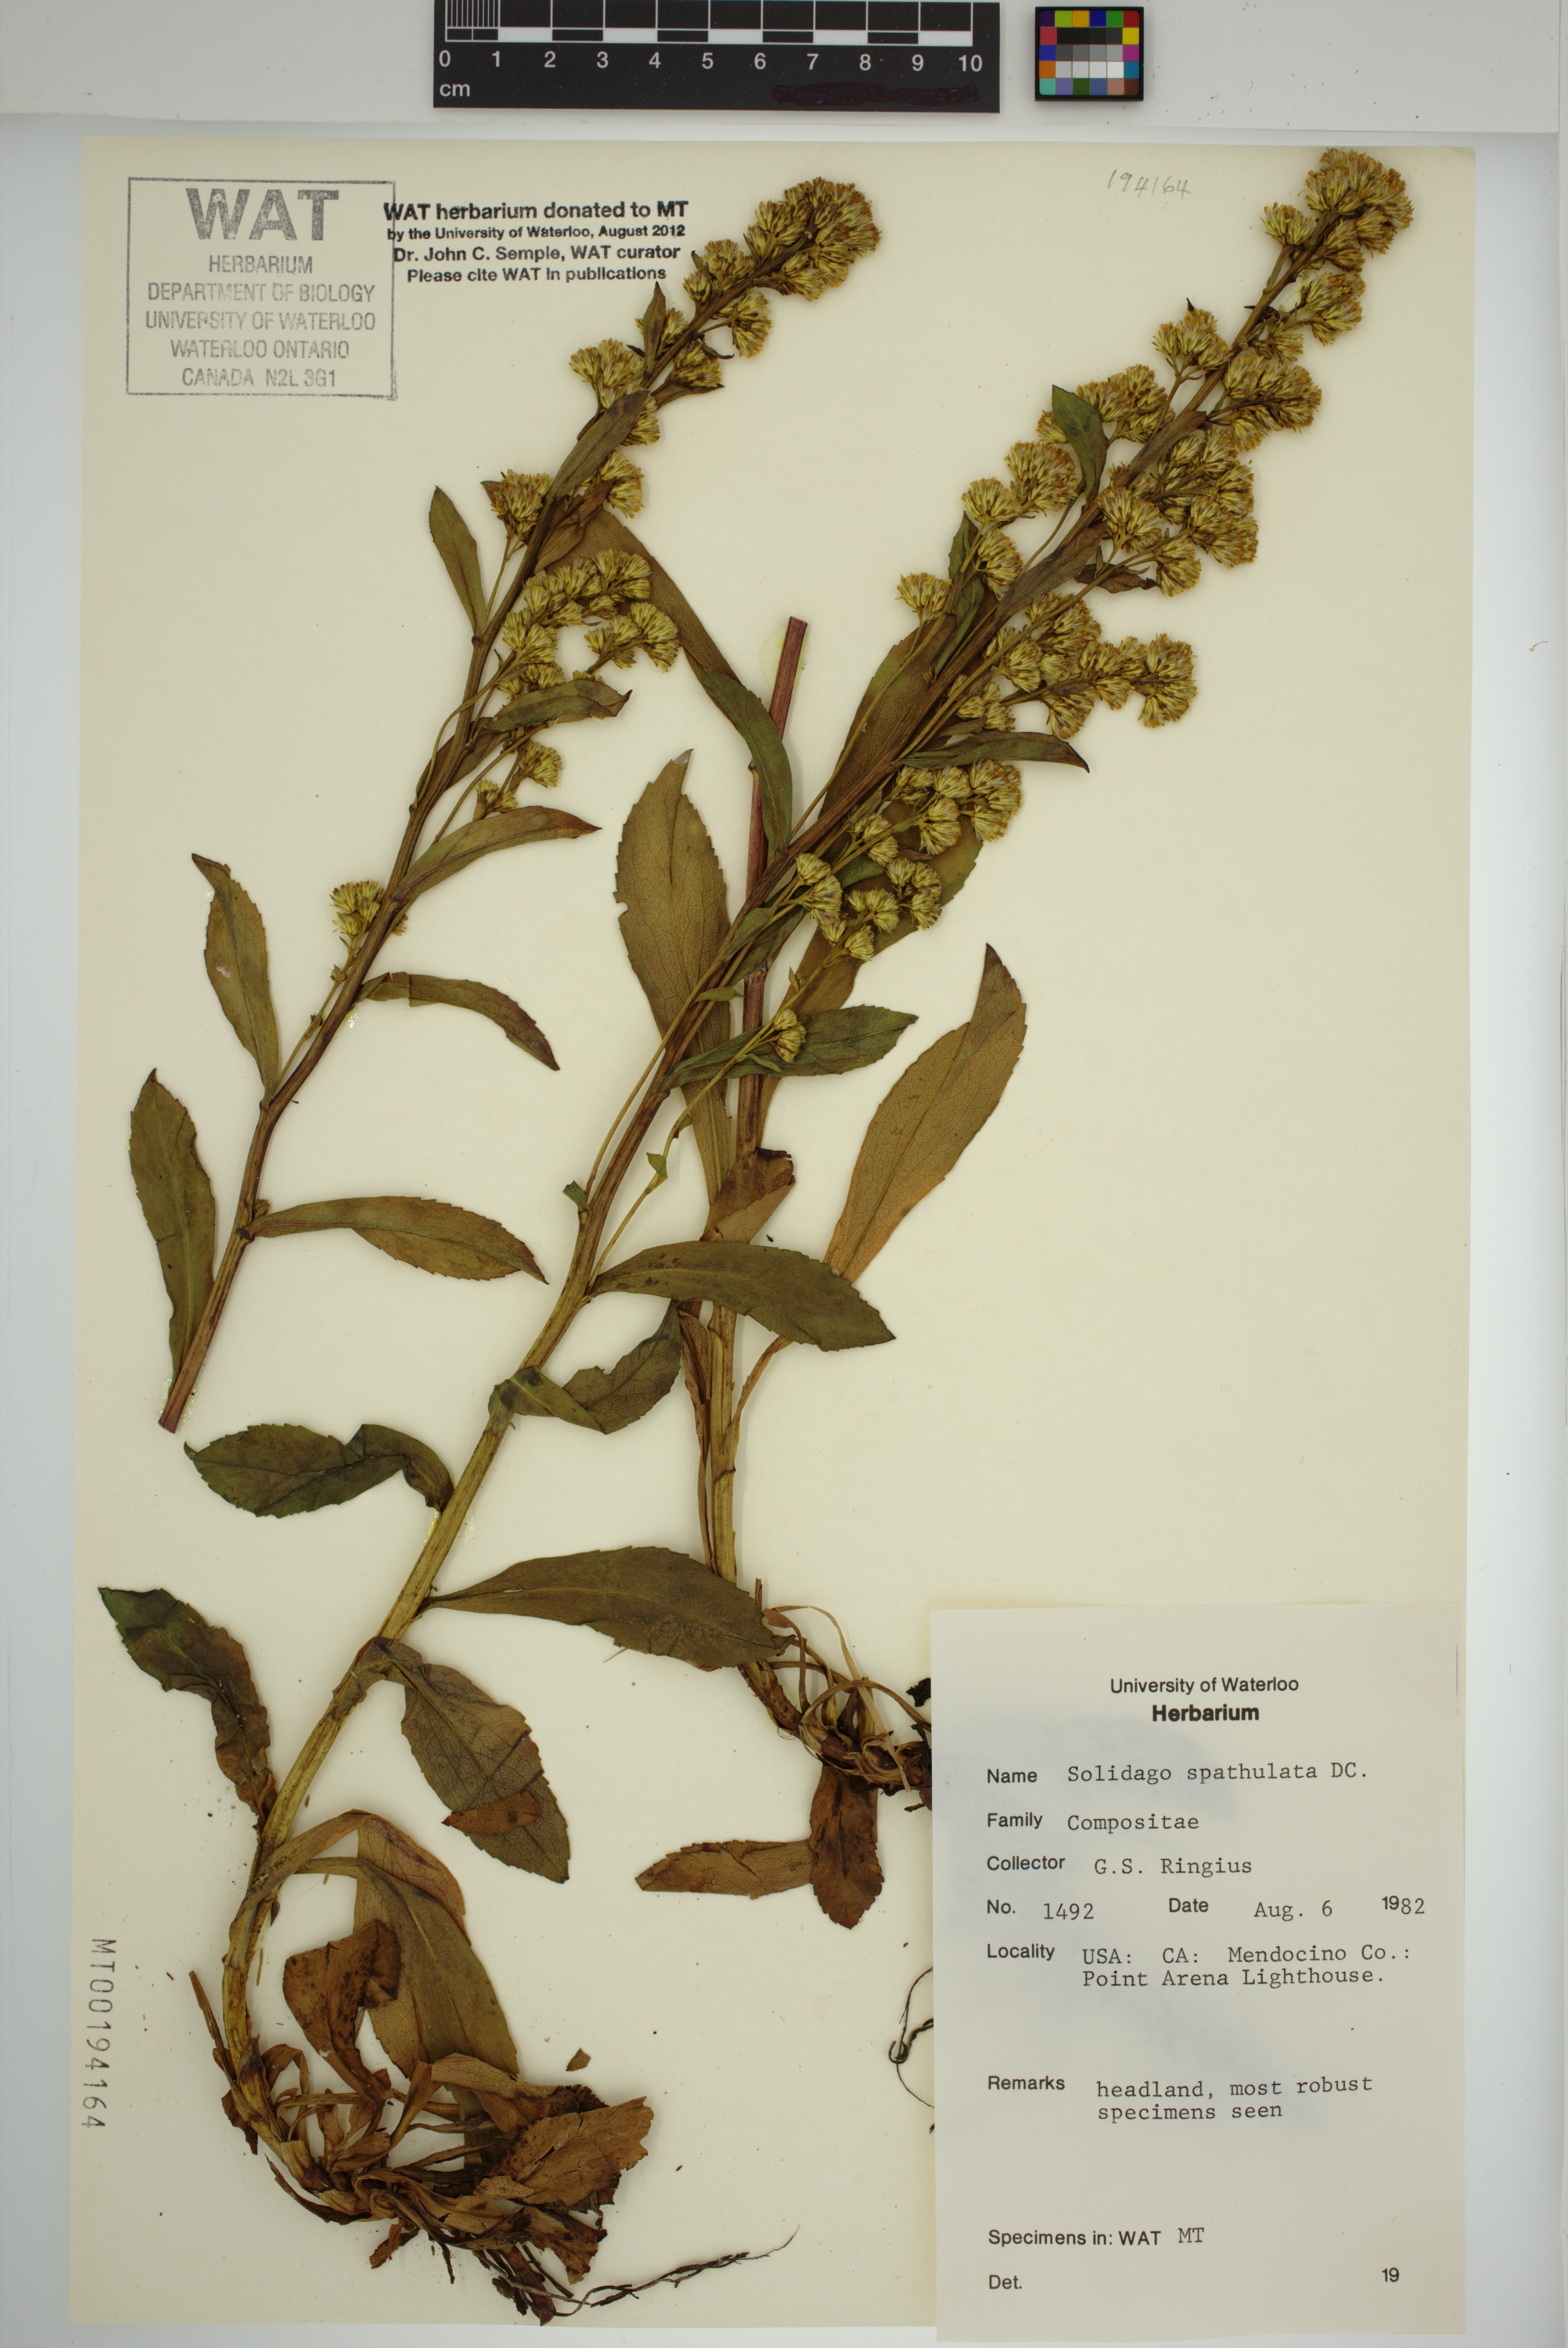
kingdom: Plantae
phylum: Tracheophyta
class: Magnoliopsida
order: Asterales
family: Asteraceae
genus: Solidago
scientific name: Solidago spathulata
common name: Coast goldenrod
